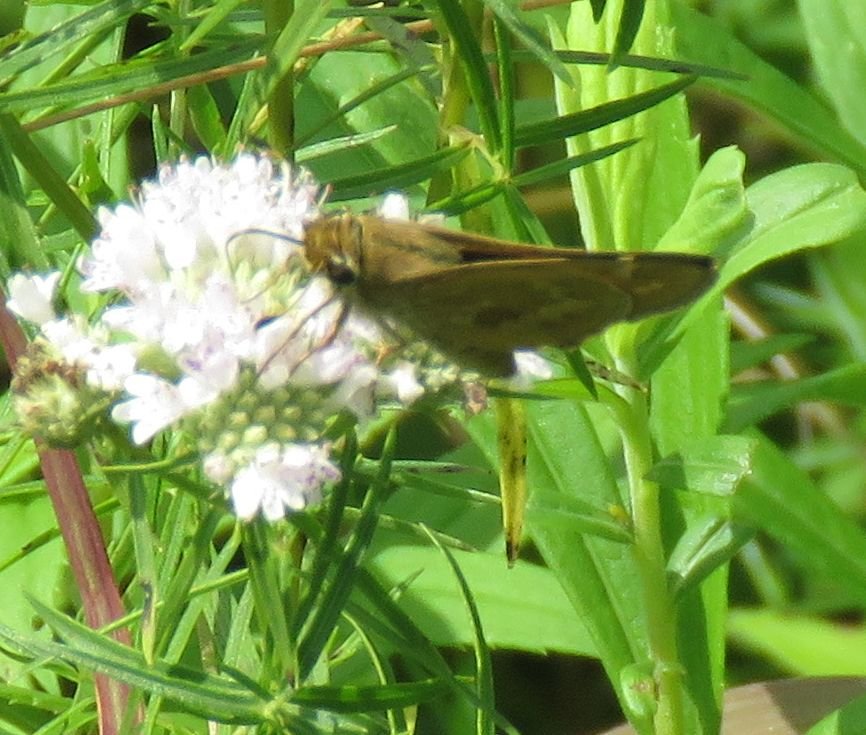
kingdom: Animalia
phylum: Arthropoda
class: Insecta
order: Lepidoptera
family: Hesperiidae
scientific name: Hesperiidae
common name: Skippers
